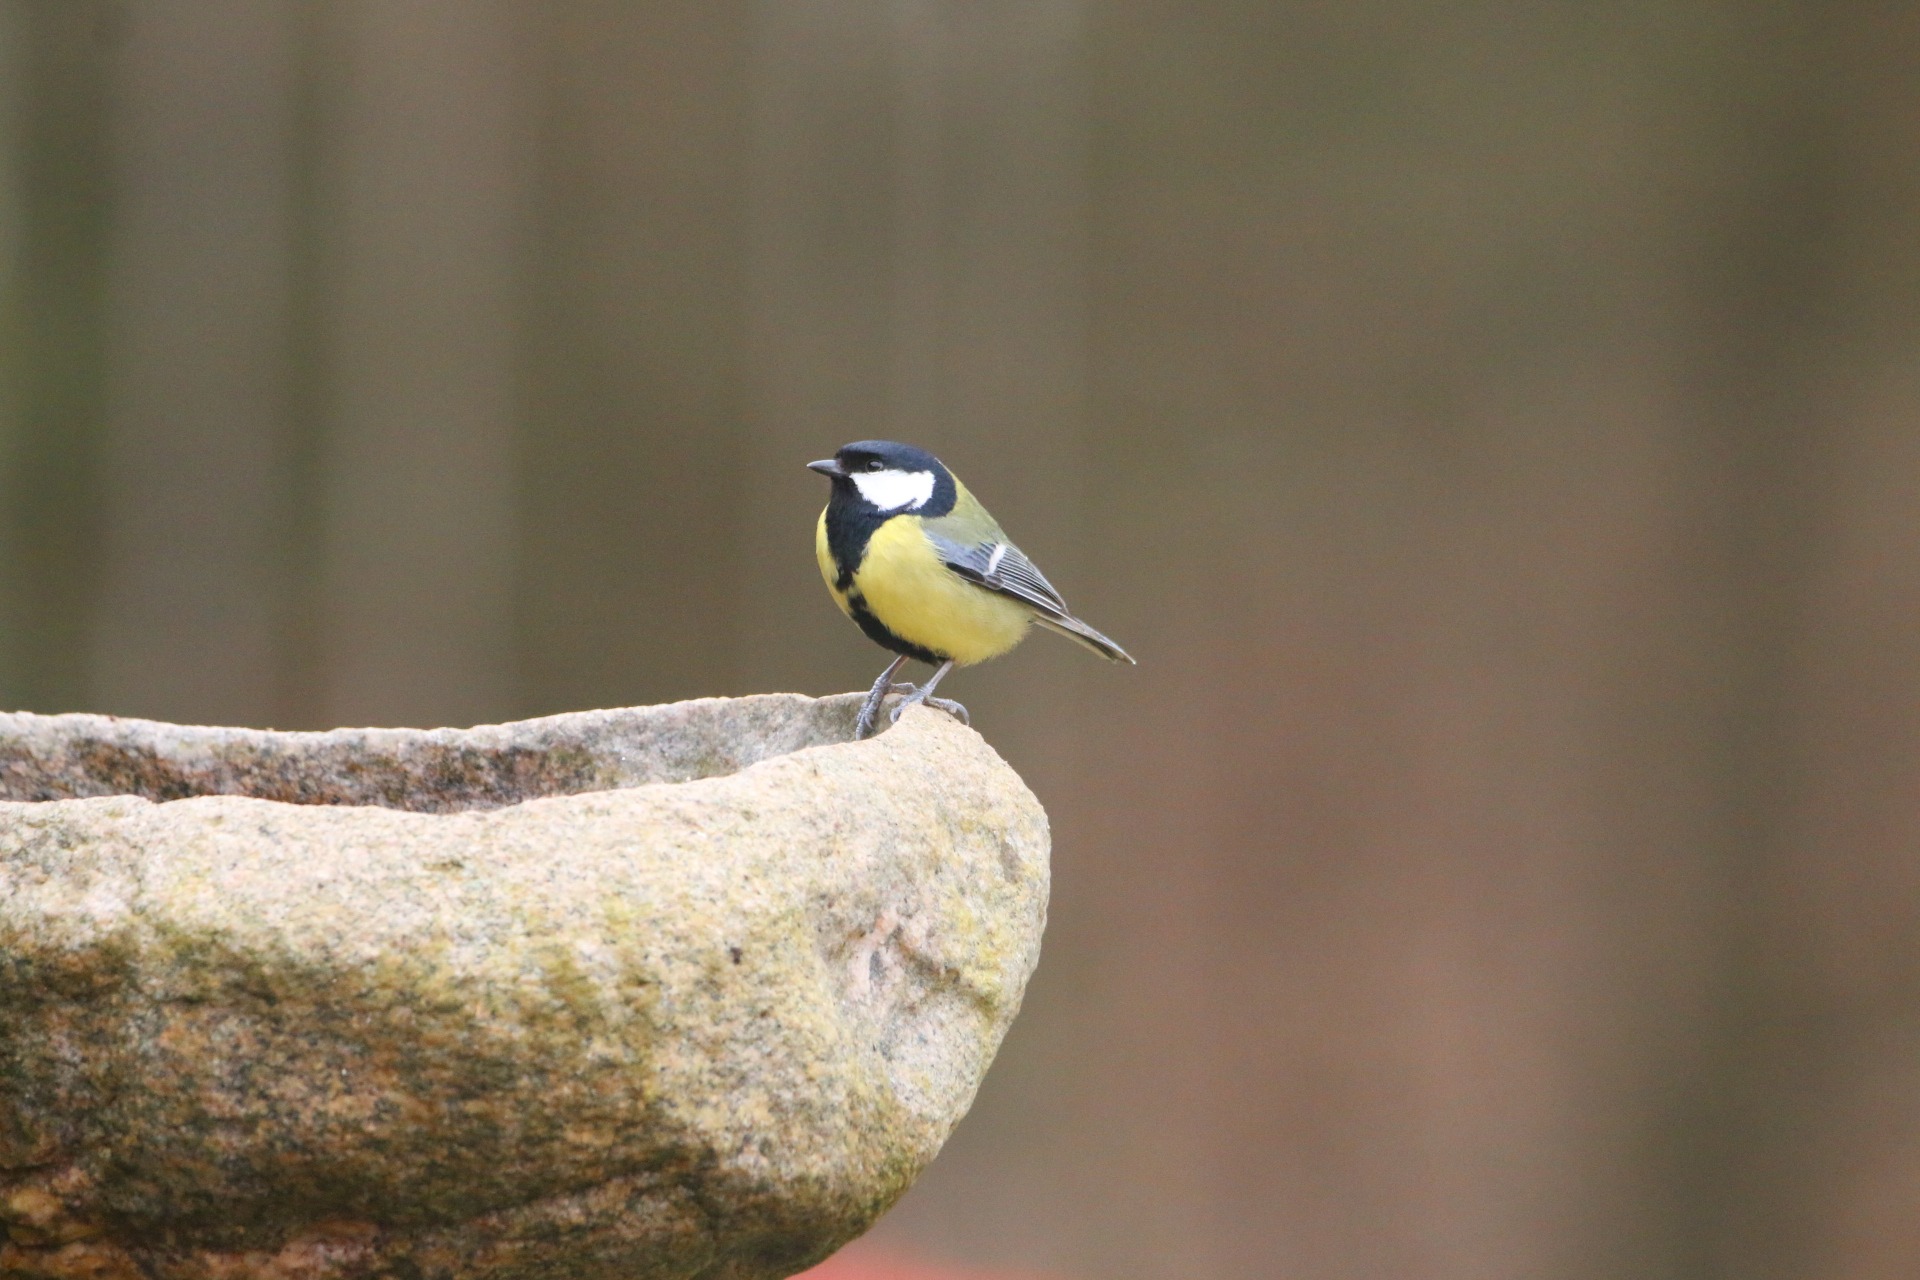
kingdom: Animalia
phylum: Chordata
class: Aves
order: Passeriformes
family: Paridae
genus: Parus
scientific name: Parus major
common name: Musvit
